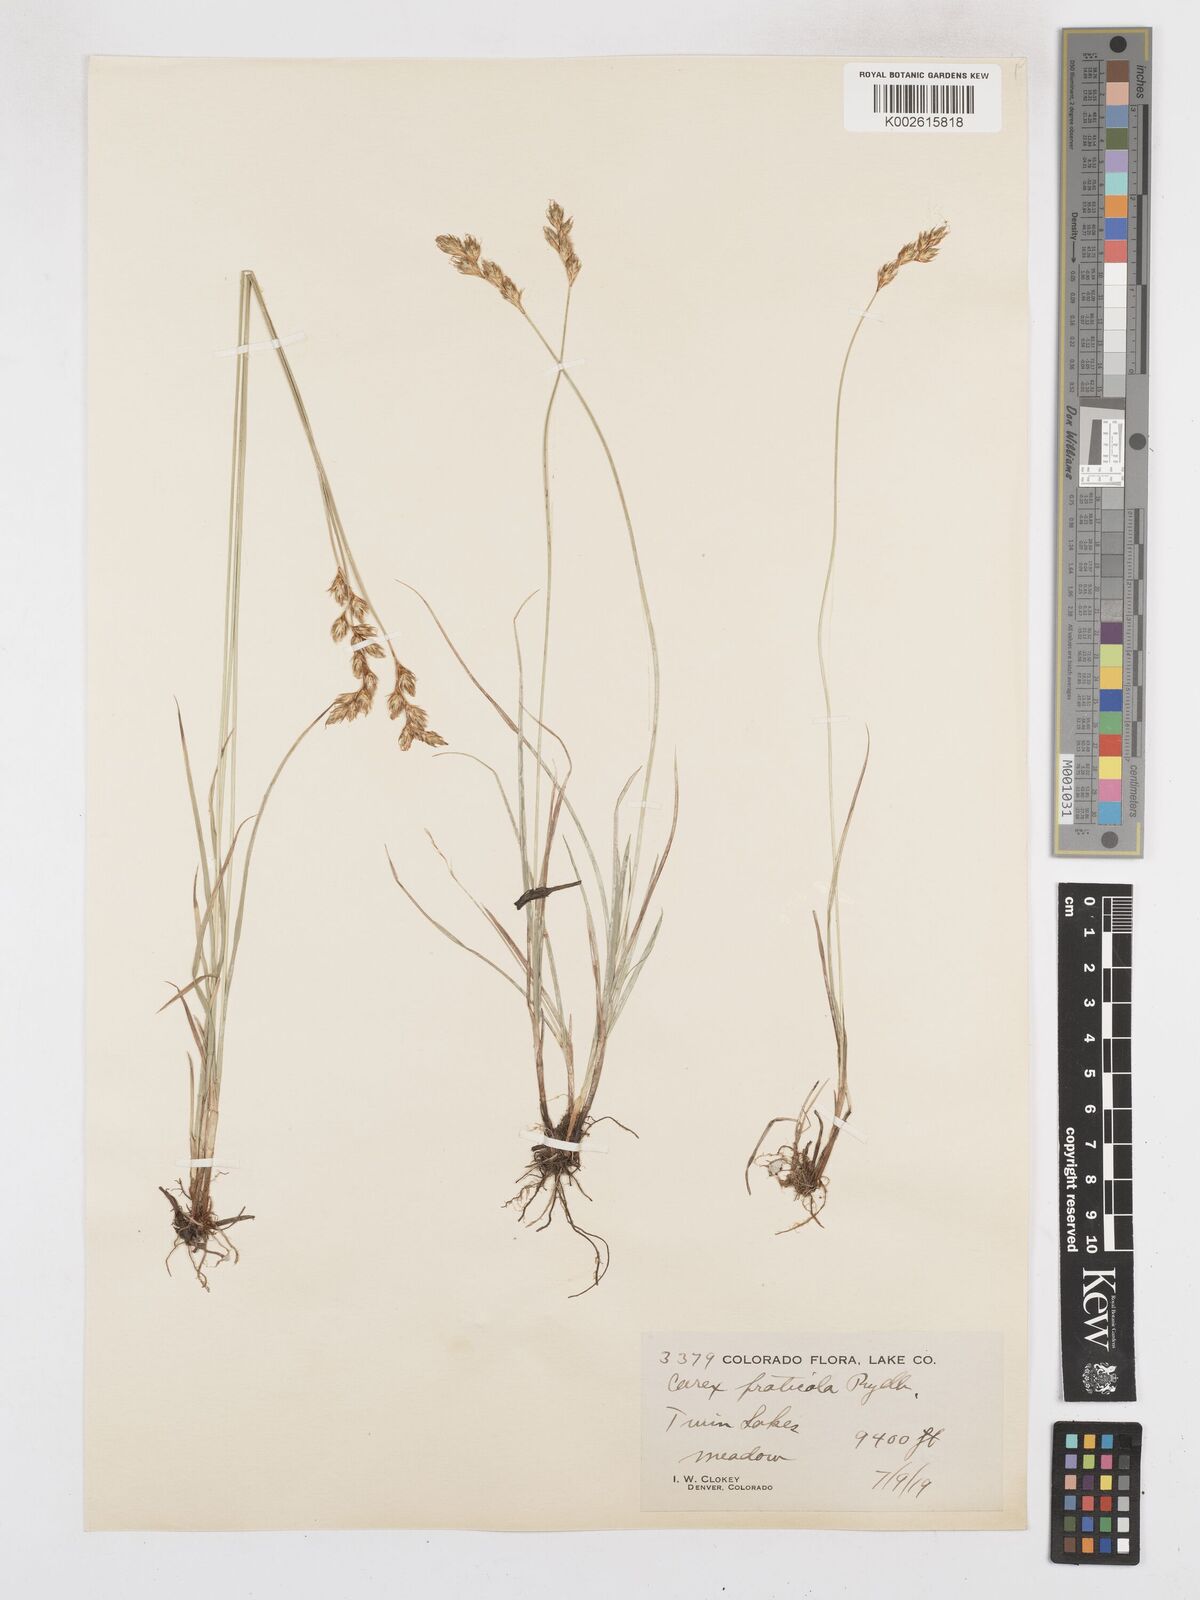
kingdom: Plantae
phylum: Tracheophyta
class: Liliopsida
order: Poales
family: Cyperaceae
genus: Carex
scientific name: Carex praticola
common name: Large-fruited oval sedge
